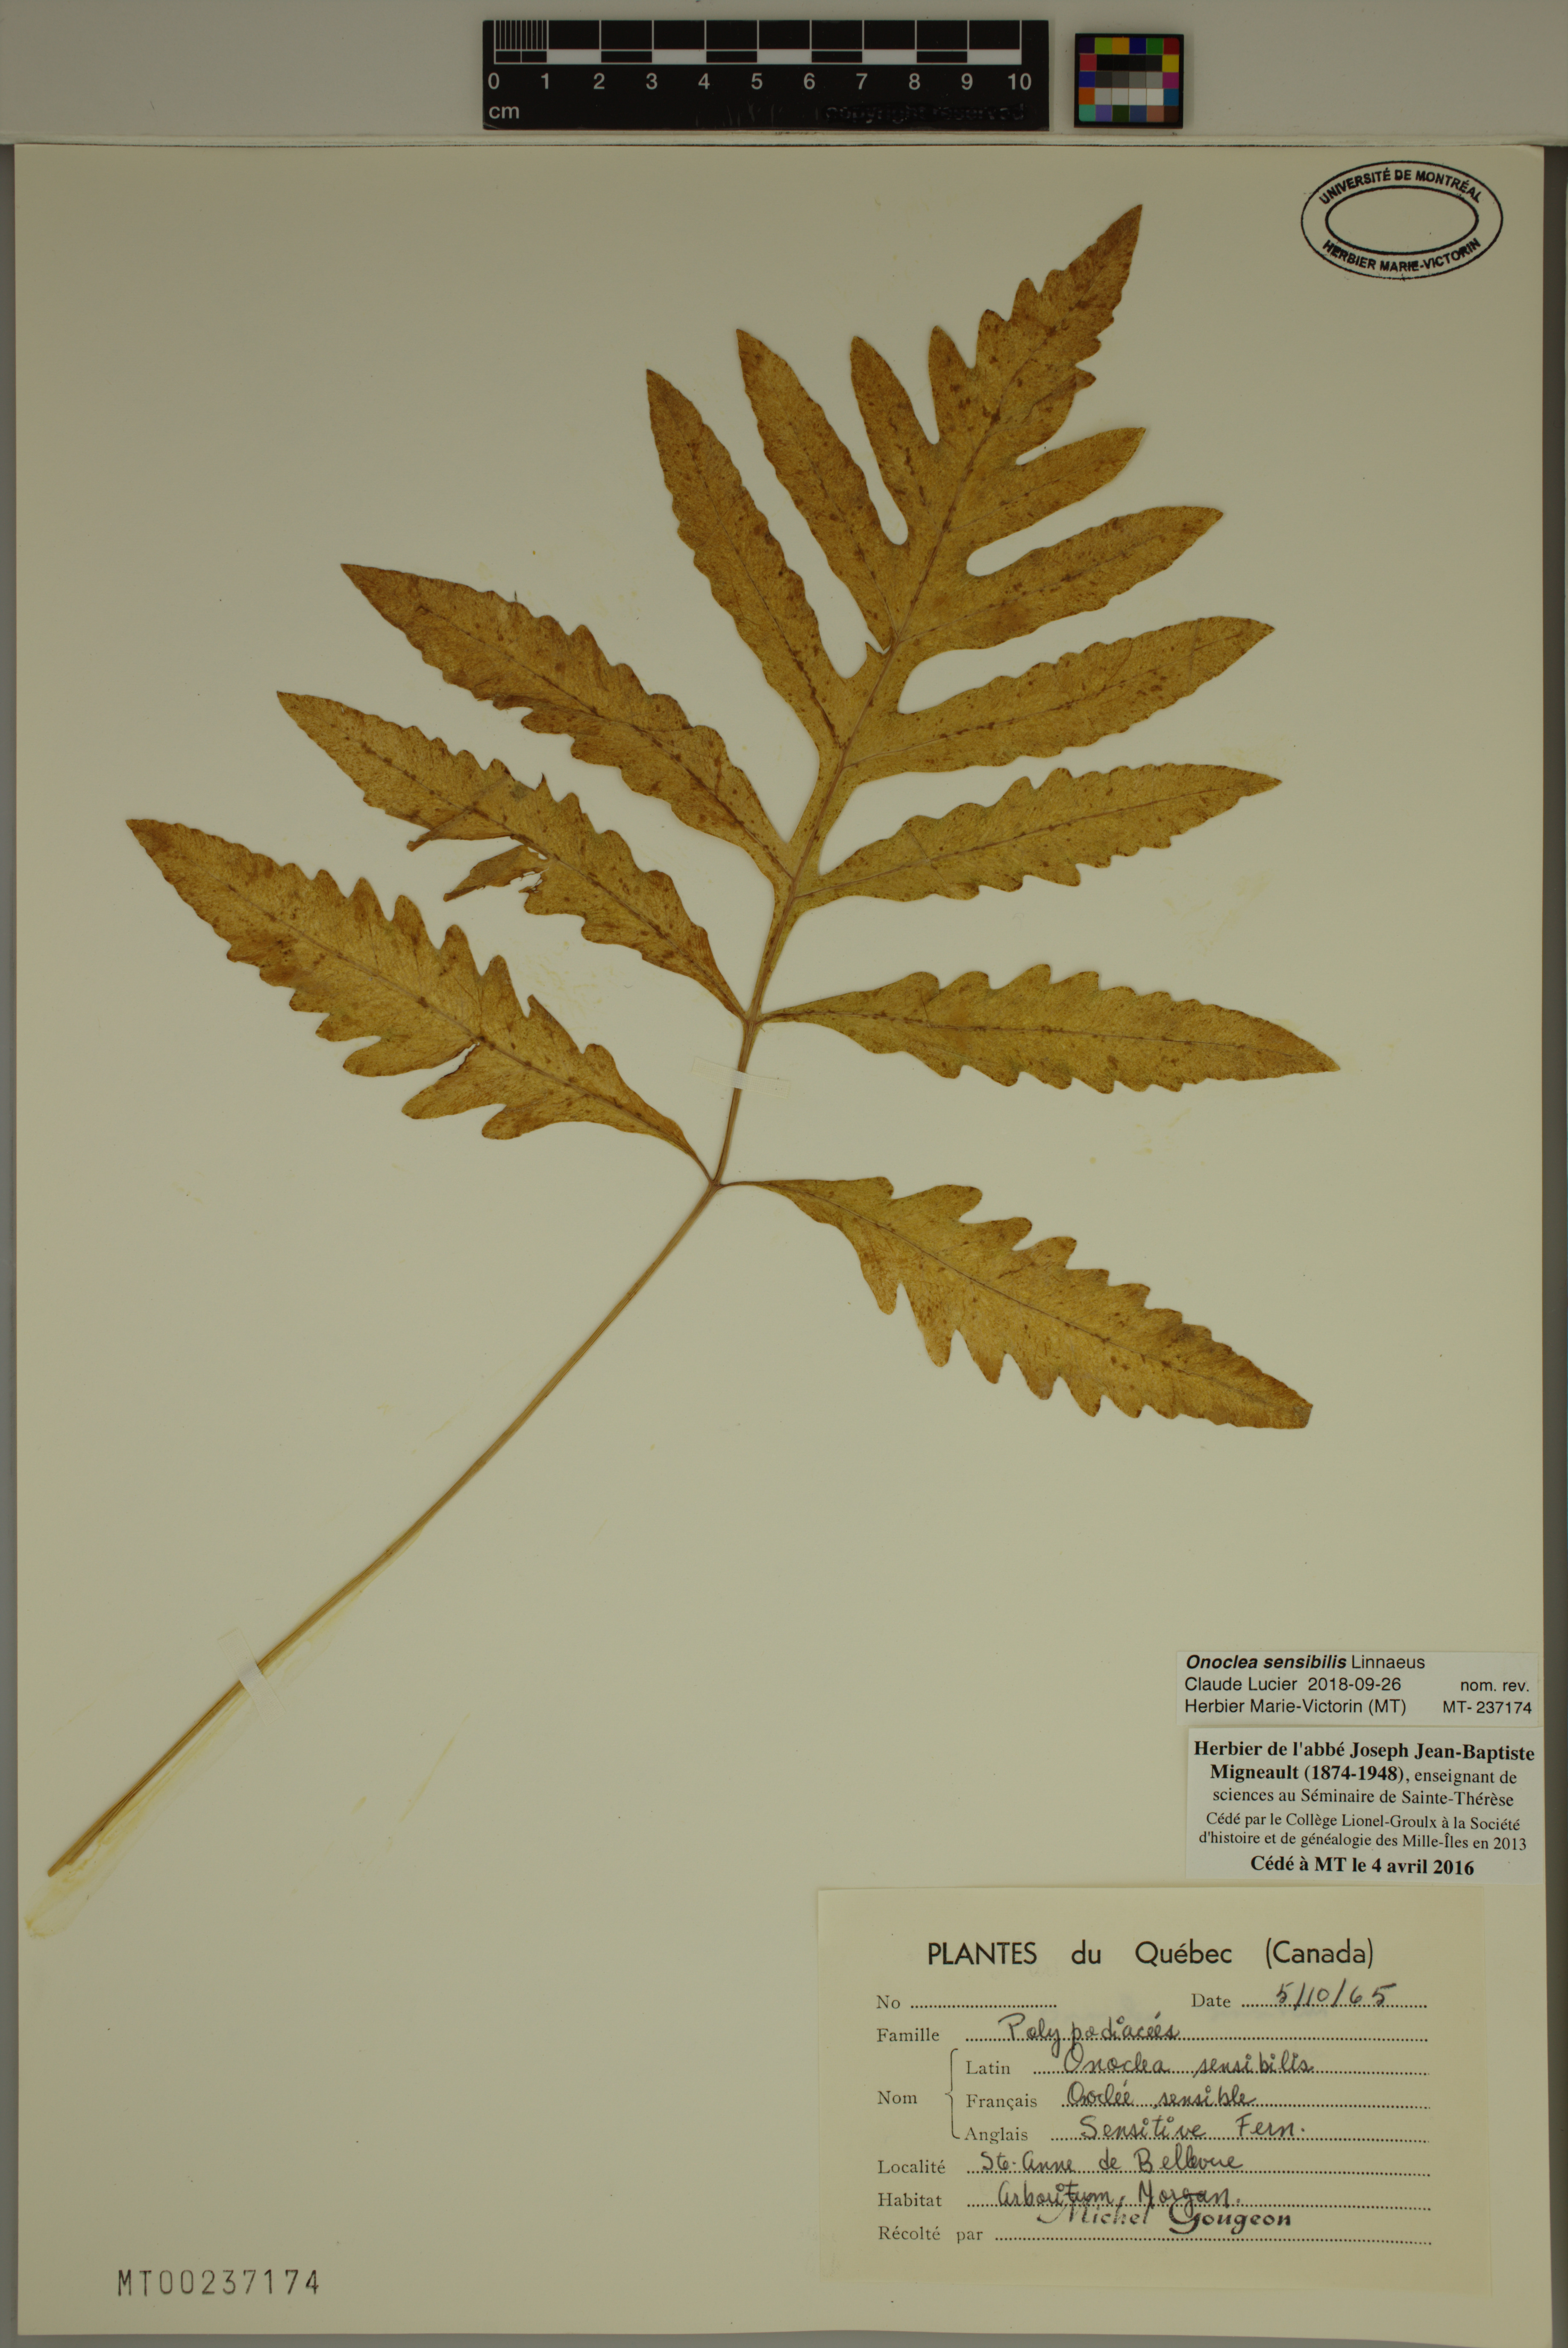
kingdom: Plantae
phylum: Tracheophyta
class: Polypodiopsida
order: Polypodiales
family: Onocleaceae
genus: Onoclea
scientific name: Onoclea sensibilis
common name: Sensitive fern
